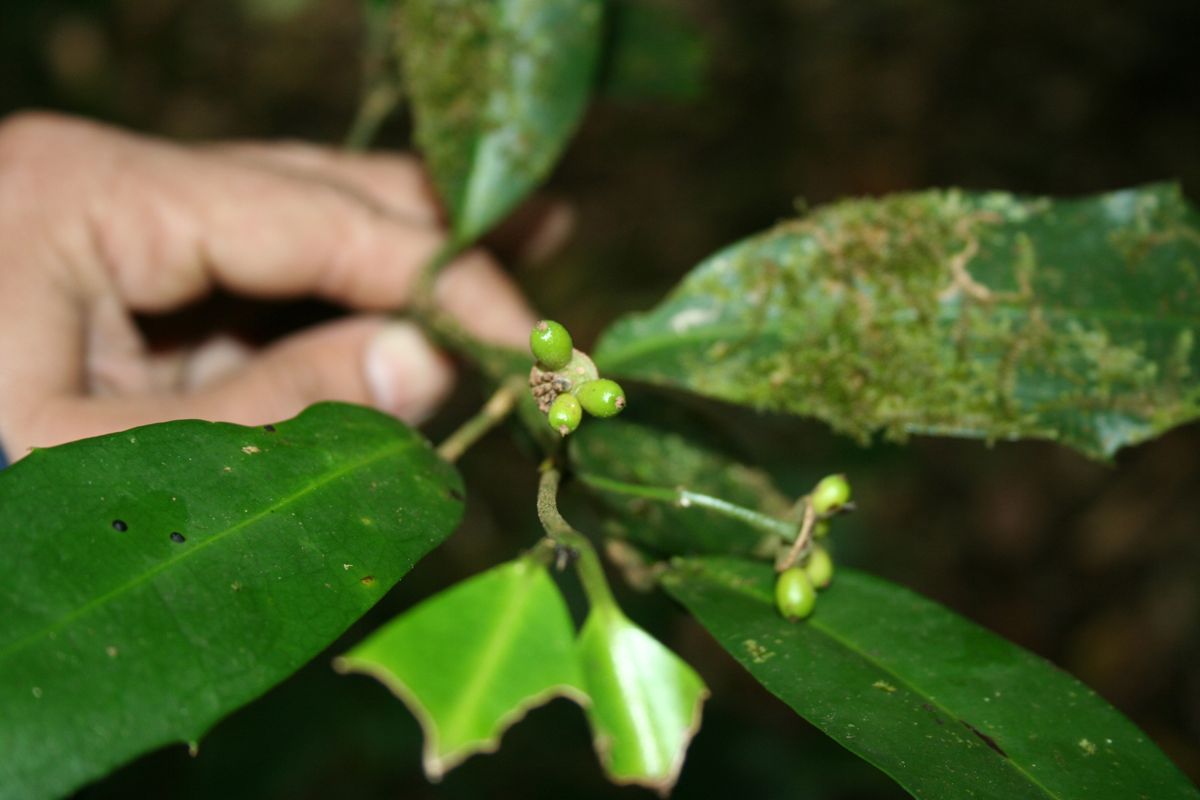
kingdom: Plantae
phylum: Tracheophyta
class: Magnoliopsida
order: Laurales
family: Monimiaceae
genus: Mollinedia
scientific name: Mollinedia viridiflora
